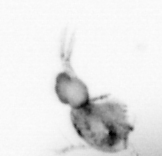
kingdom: Animalia
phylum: Arthropoda
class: Copepoda
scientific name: Copepoda
